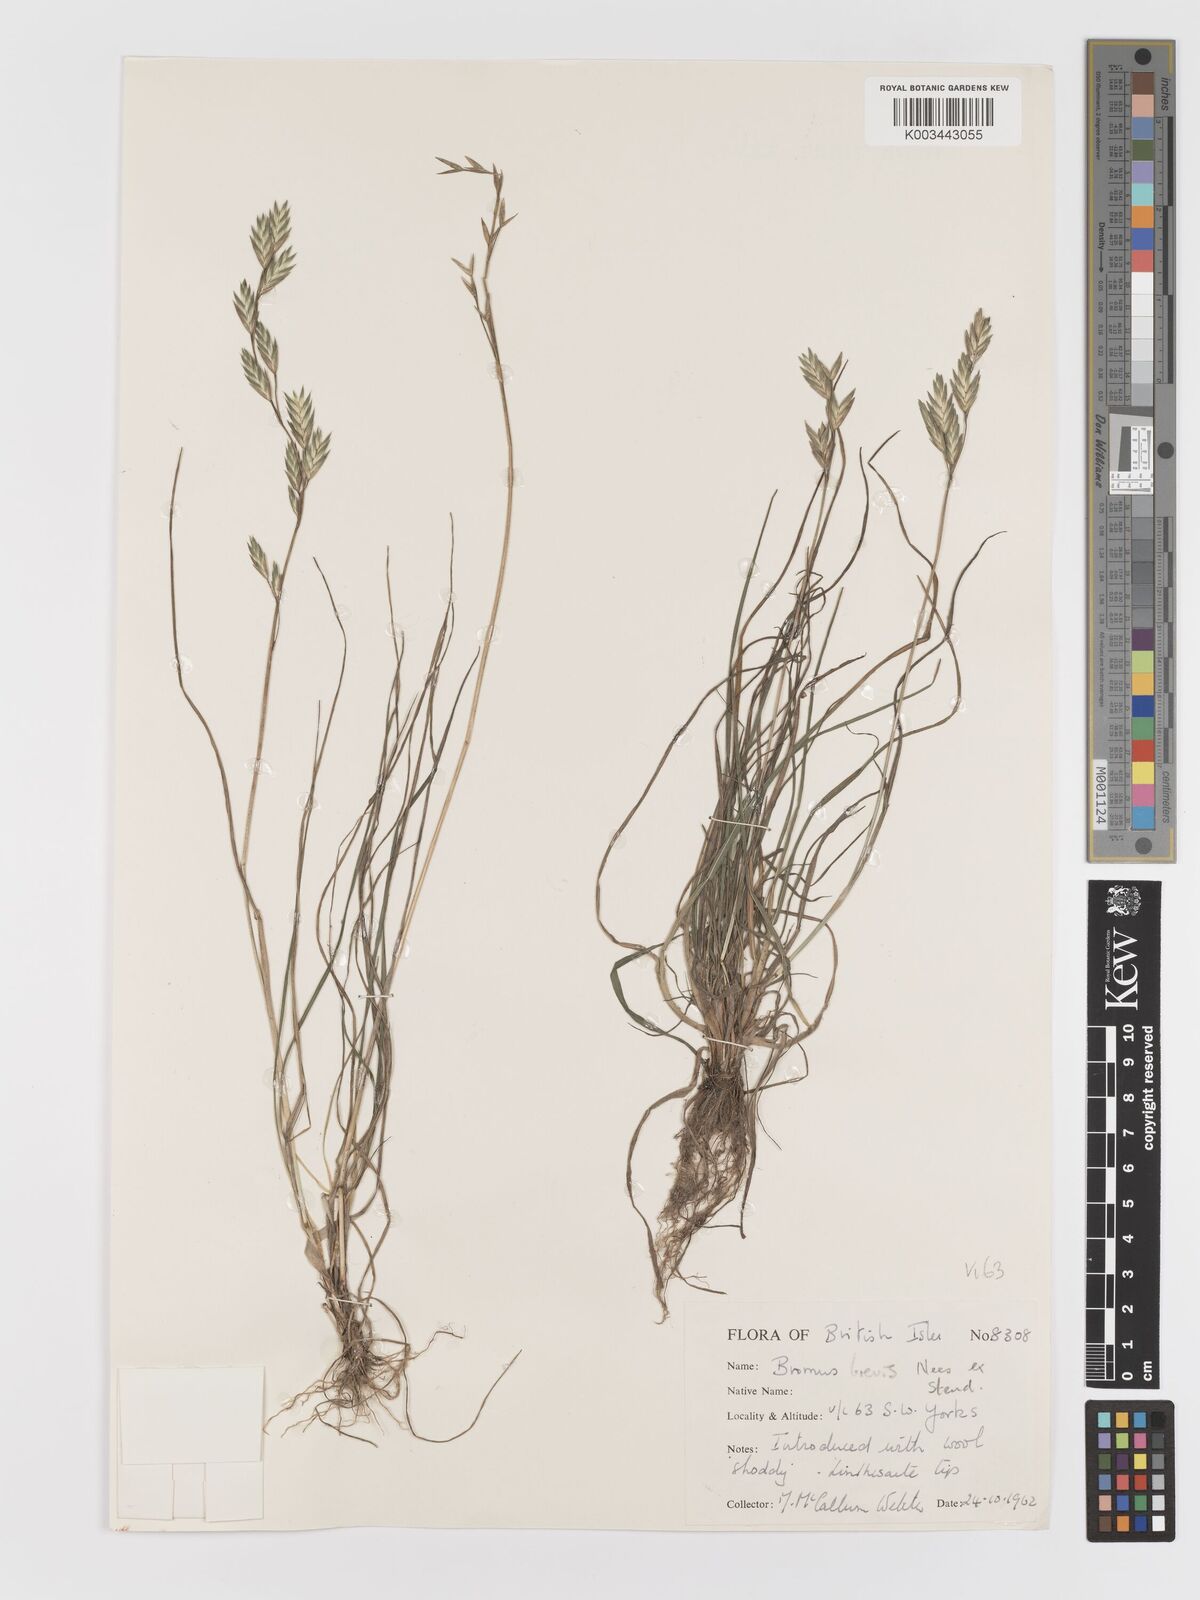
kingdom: Plantae
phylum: Tracheophyta
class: Liliopsida
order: Poales
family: Poaceae
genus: Bromus
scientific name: Bromus catharticus
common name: Rescuegrass
